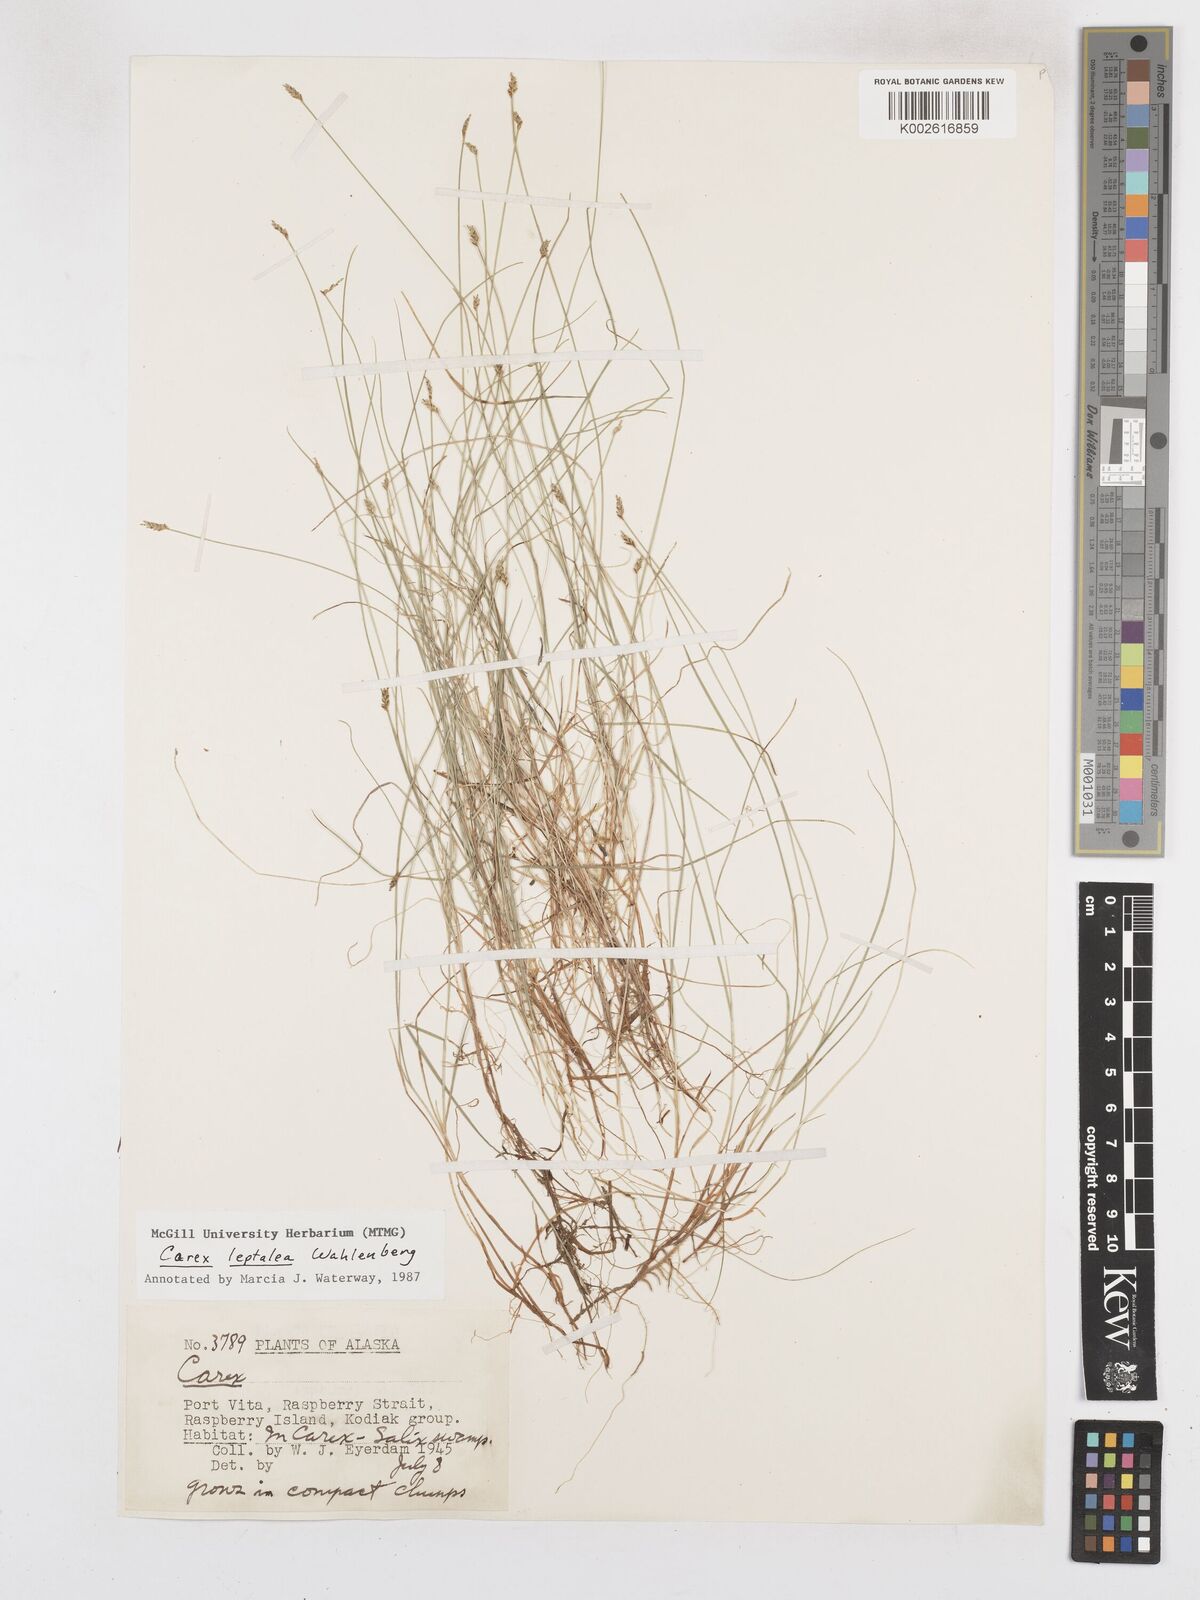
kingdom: Plantae
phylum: Tracheophyta
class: Liliopsida
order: Poales
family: Cyperaceae
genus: Carex
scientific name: Carex leptalea
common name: Bristly-stalked sedge
